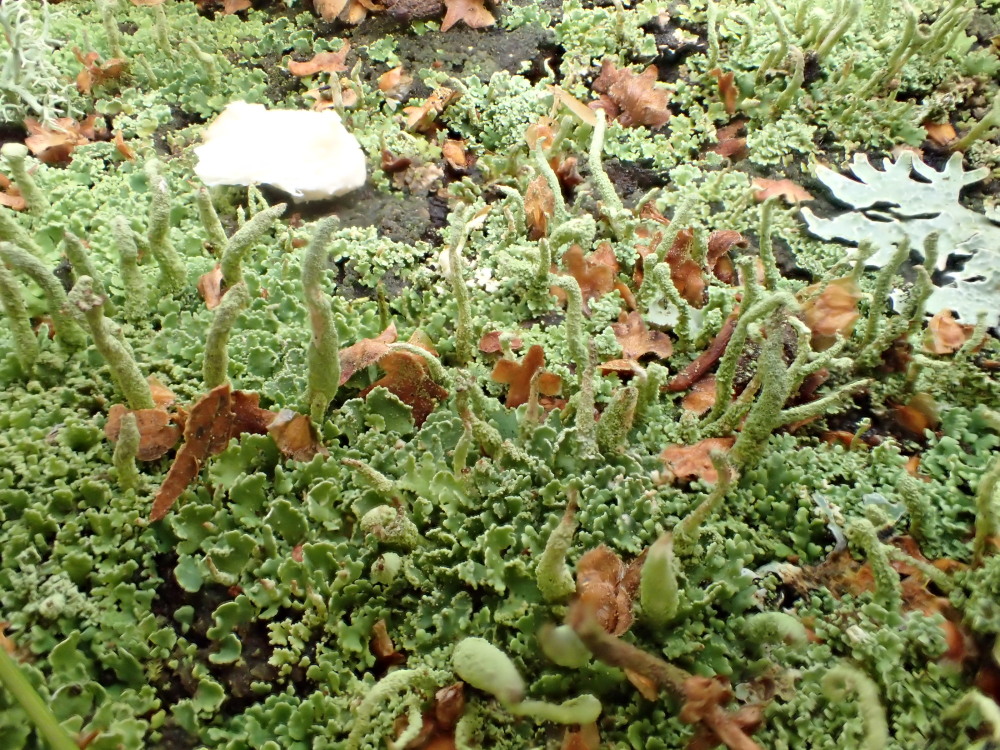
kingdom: Fungi
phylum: Ascomycota
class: Lecanoromycetes
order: Lecanorales
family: Cladoniaceae
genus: Cladonia
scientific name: Cladonia coniocraea
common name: træfods-bægerlav
